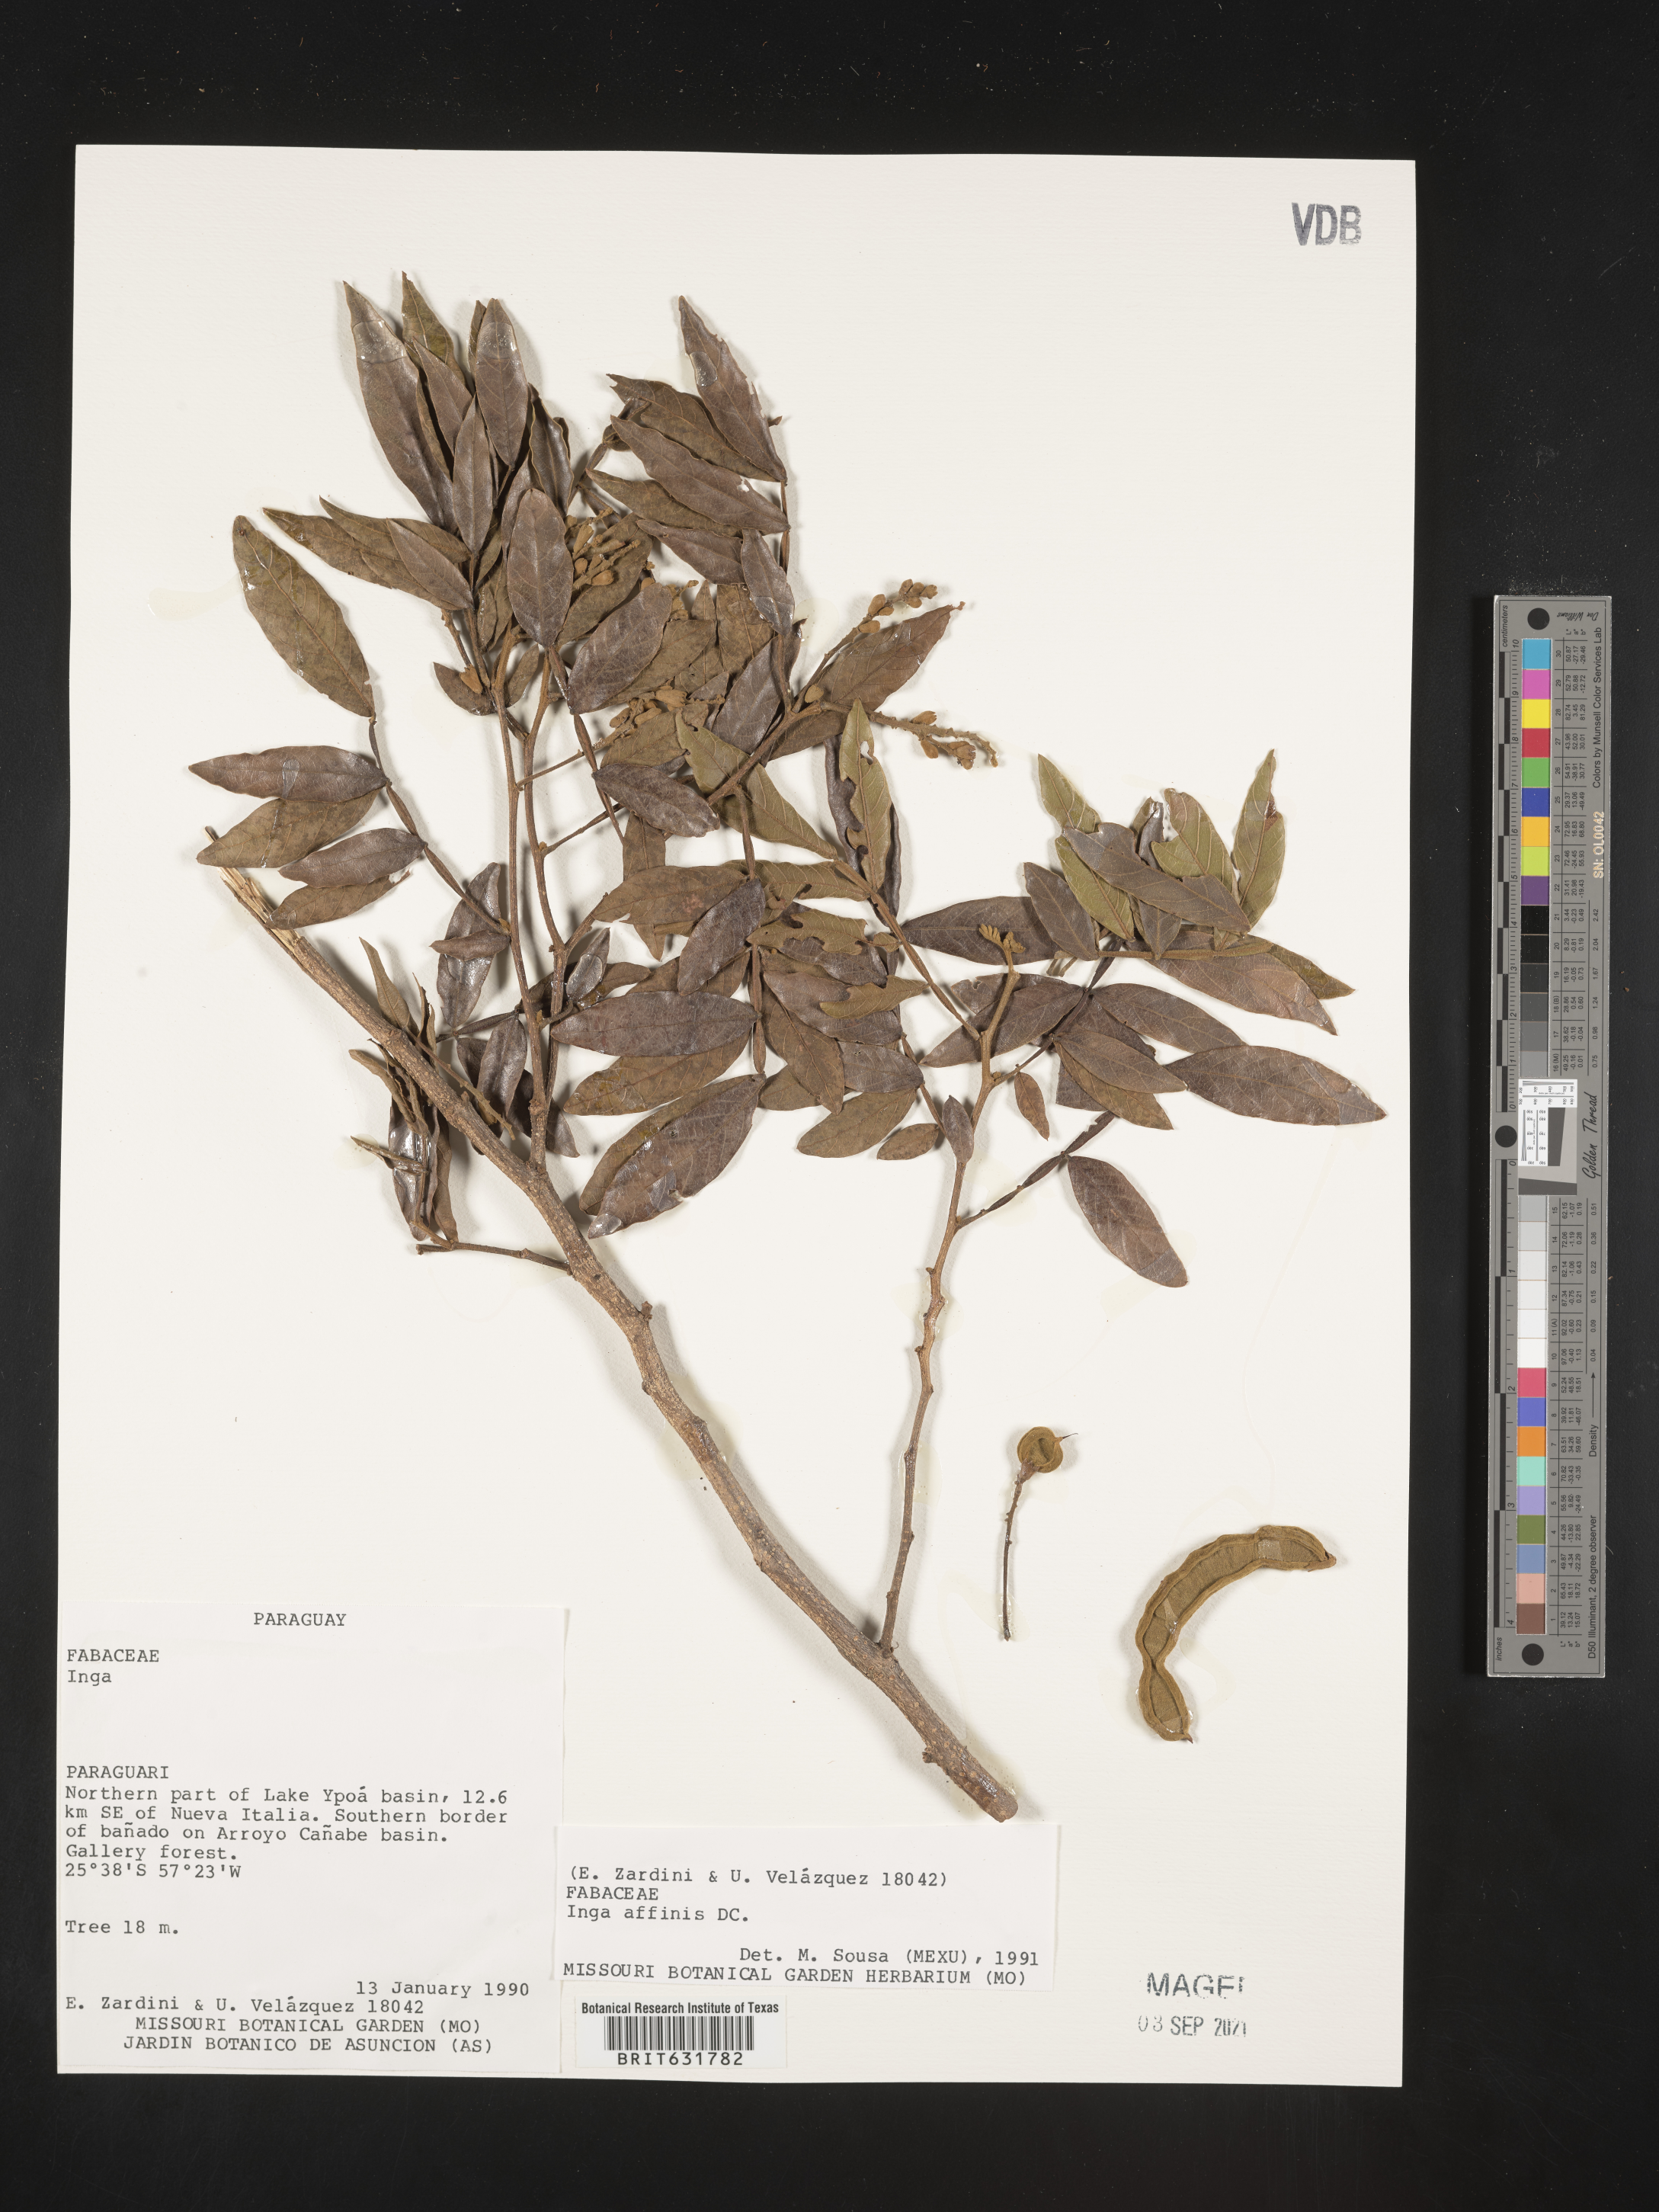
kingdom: Plantae
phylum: Tracheophyta
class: Magnoliopsida
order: Fabales
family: Fabaceae
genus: Inga
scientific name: Inga
